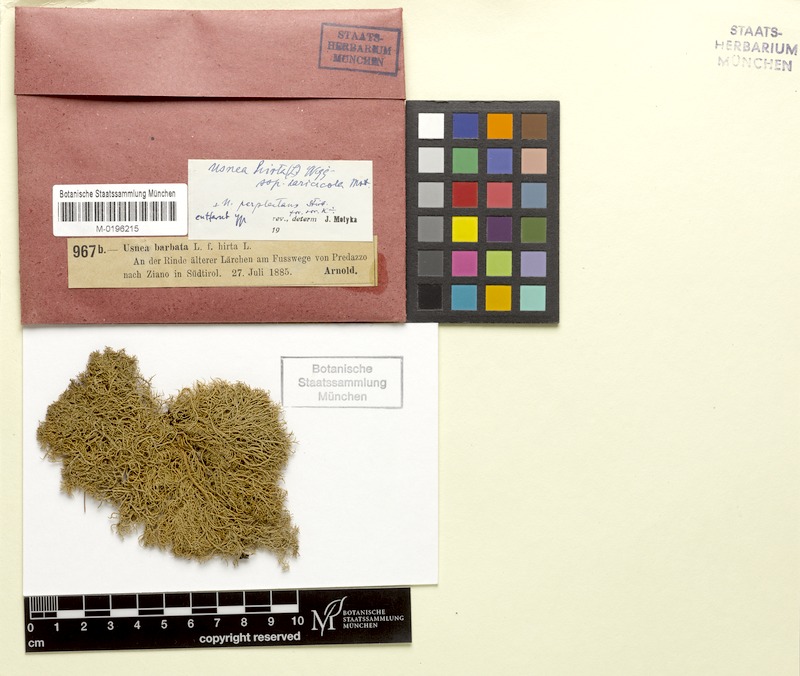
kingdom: Fungi
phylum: Ascomycota
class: Lecanoromycetes
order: Lecanorales
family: Parmeliaceae
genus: Usnea
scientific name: Usnea hirta
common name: Bristly beard lichen
